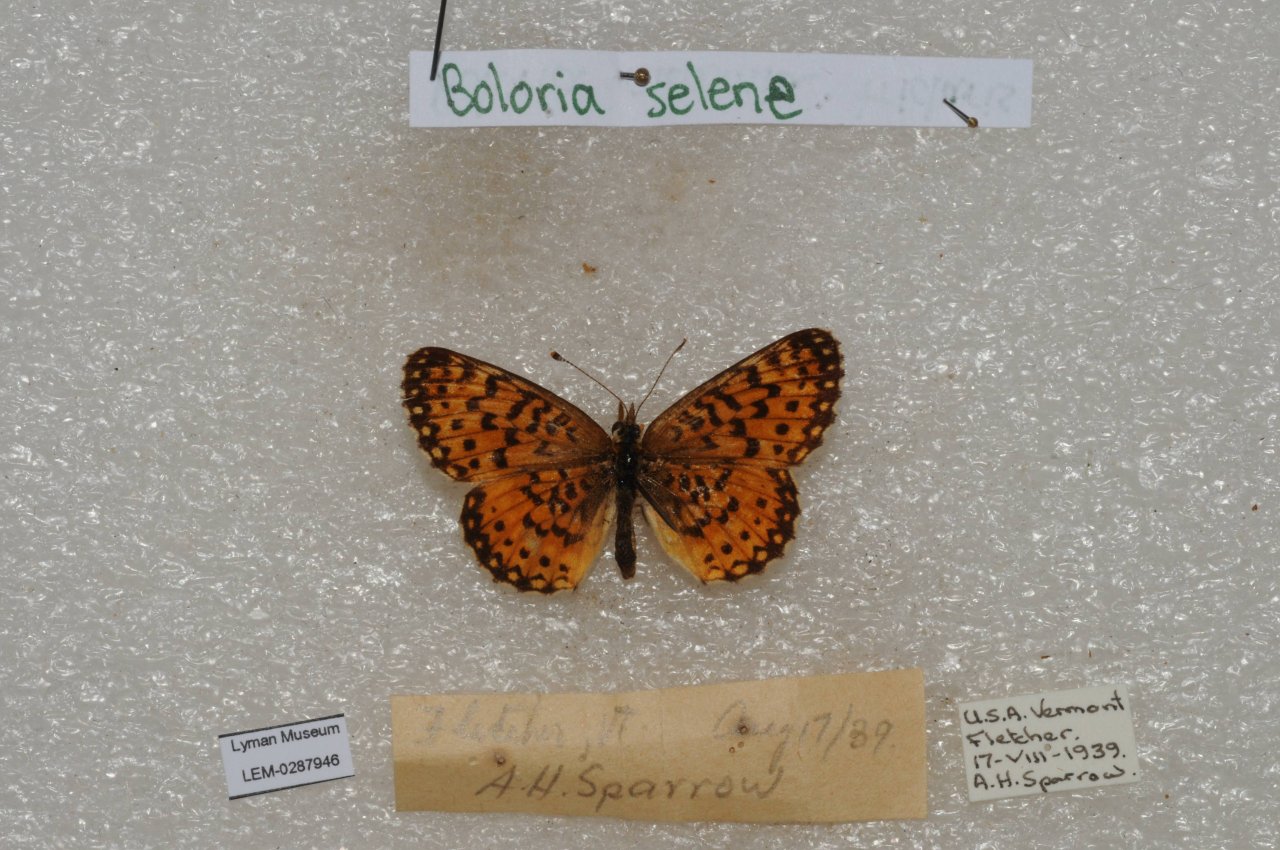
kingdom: Animalia
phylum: Arthropoda
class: Insecta
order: Lepidoptera
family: Nymphalidae
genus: Boloria
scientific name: Boloria selene
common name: Silver-bordered Fritillary
